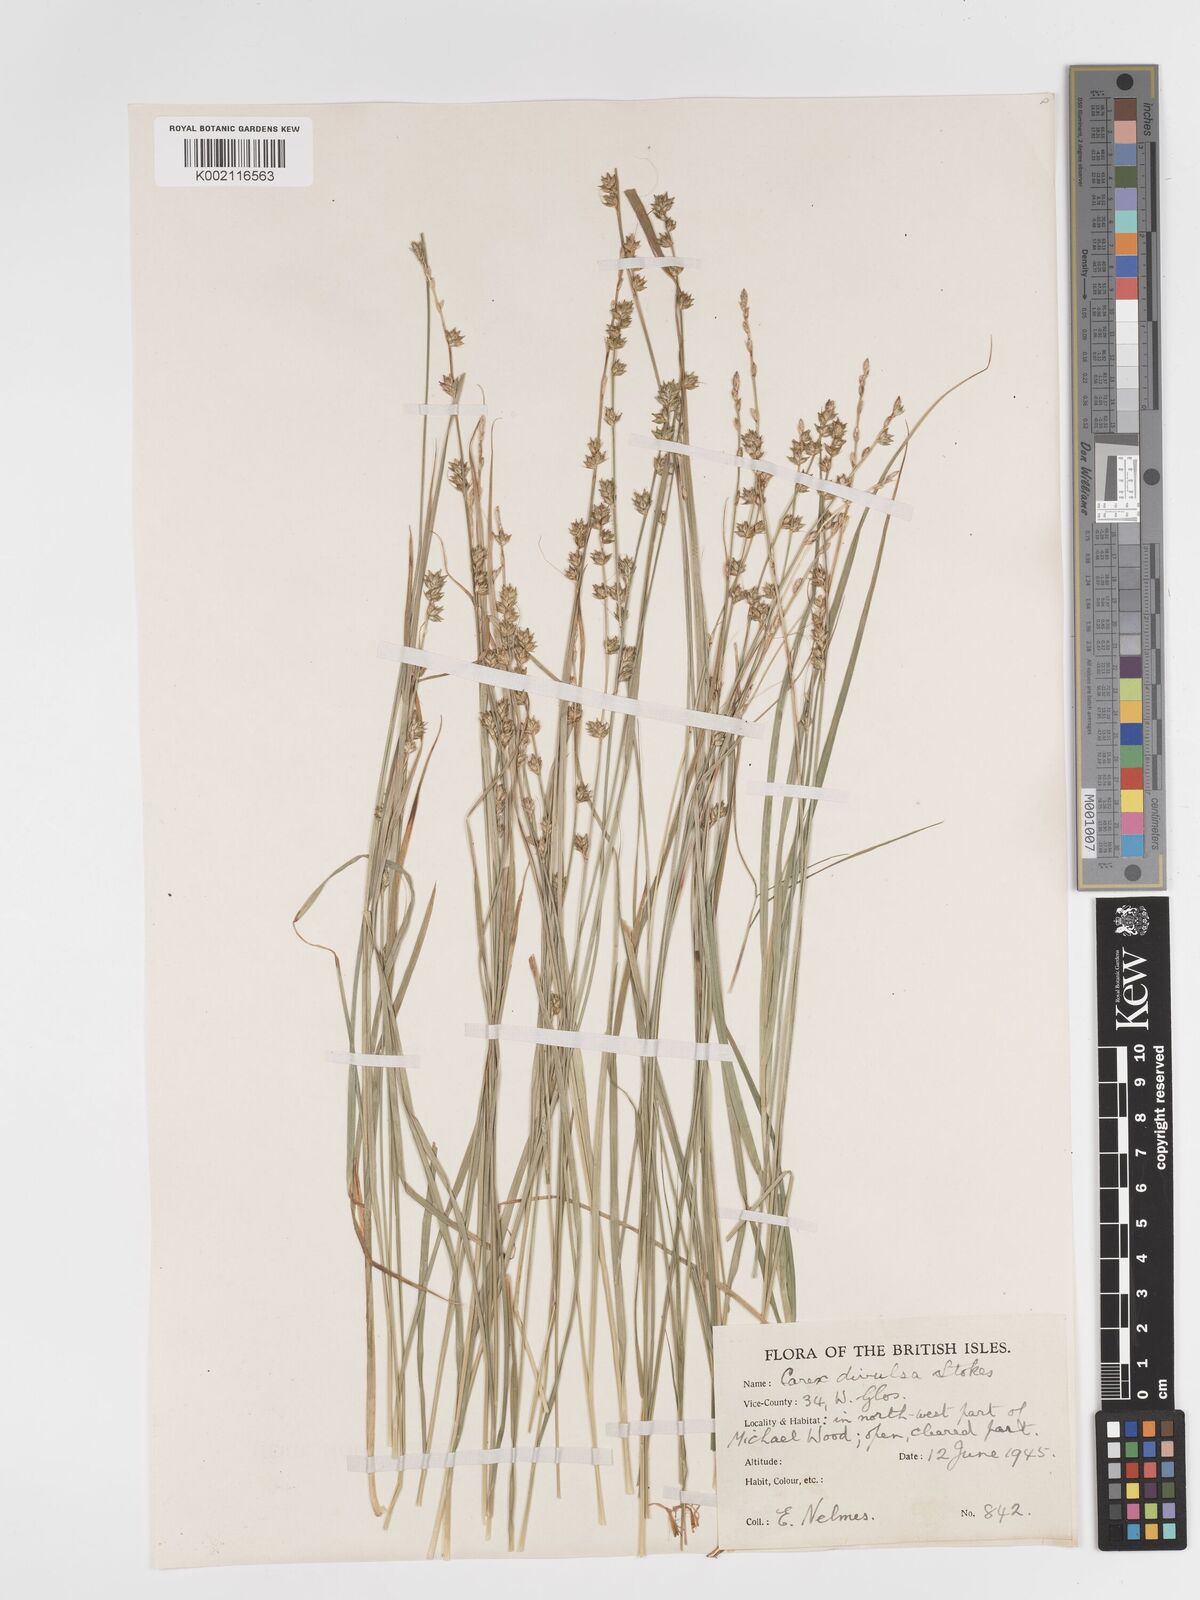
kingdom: Plantae
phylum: Tracheophyta
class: Liliopsida
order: Poales
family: Cyperaceae
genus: Carex
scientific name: Carex divulsa
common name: Grassland sedge
